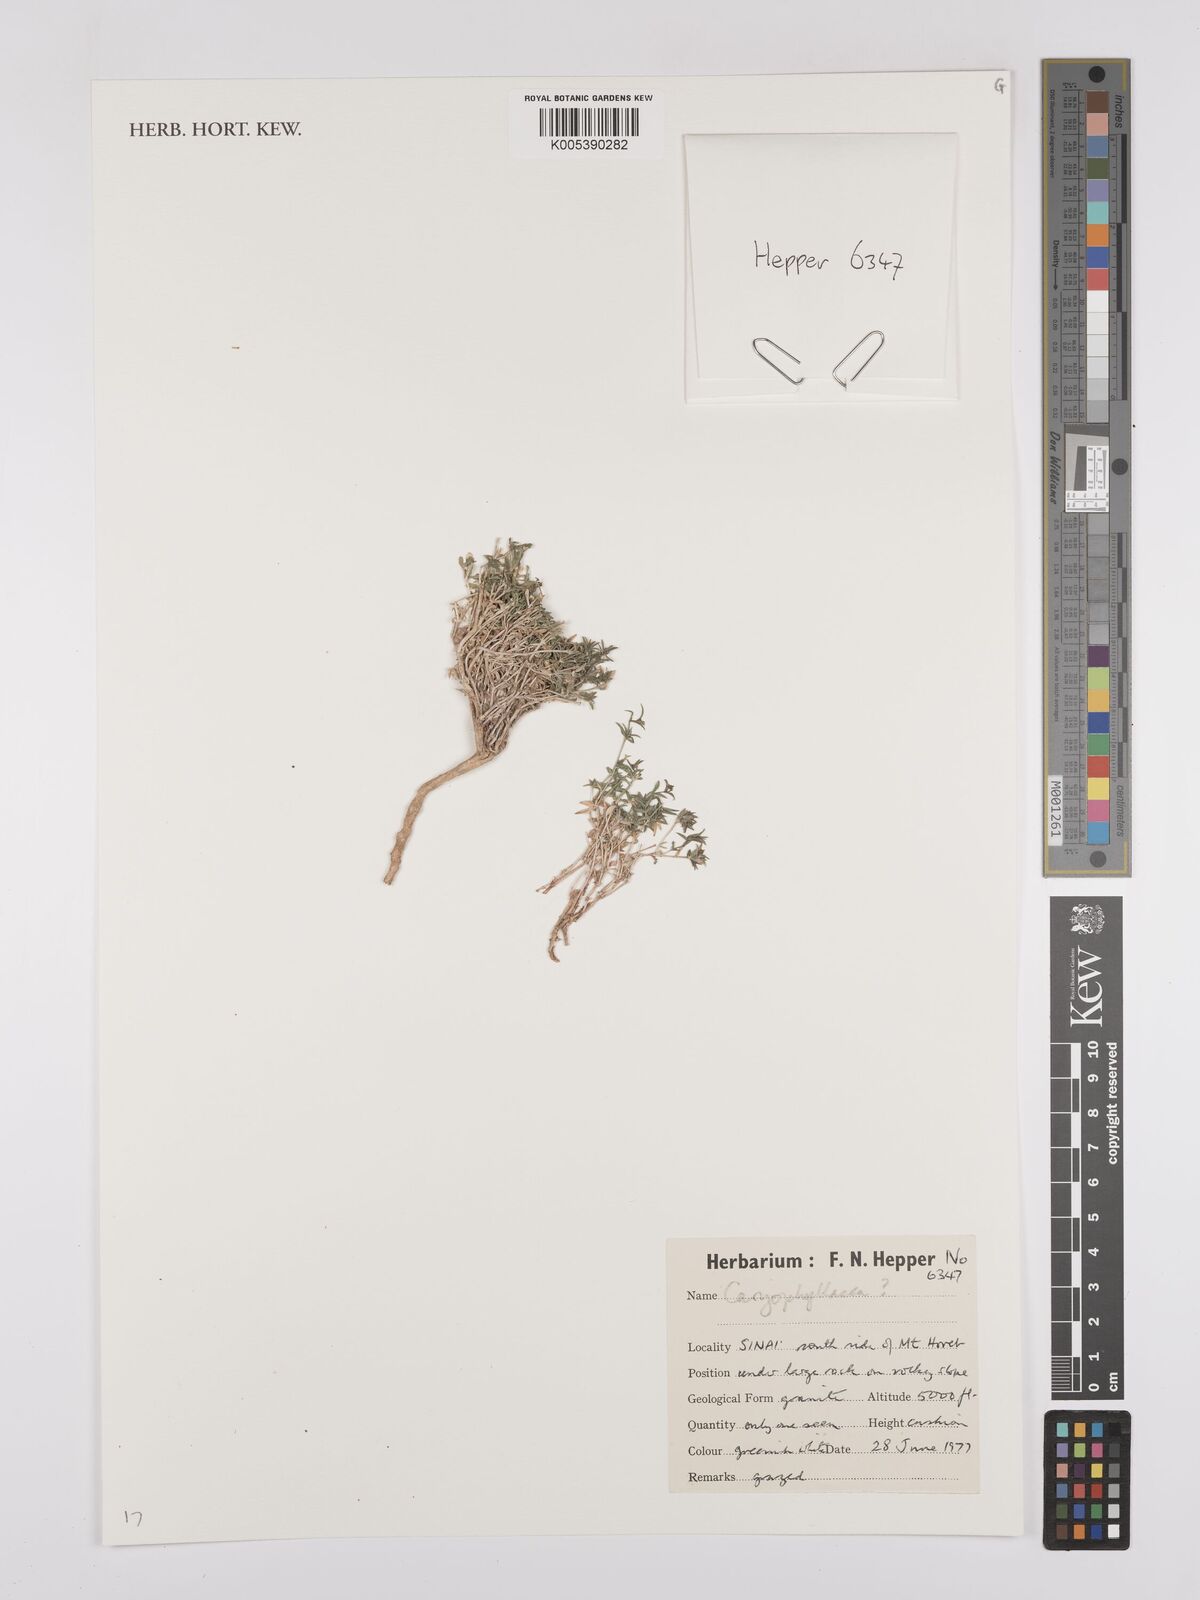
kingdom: Plantae
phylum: Tracheophyta
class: Magnoliopsida
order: Caryophyllales
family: Caryophyllaceae
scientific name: Caryophyllaceae
